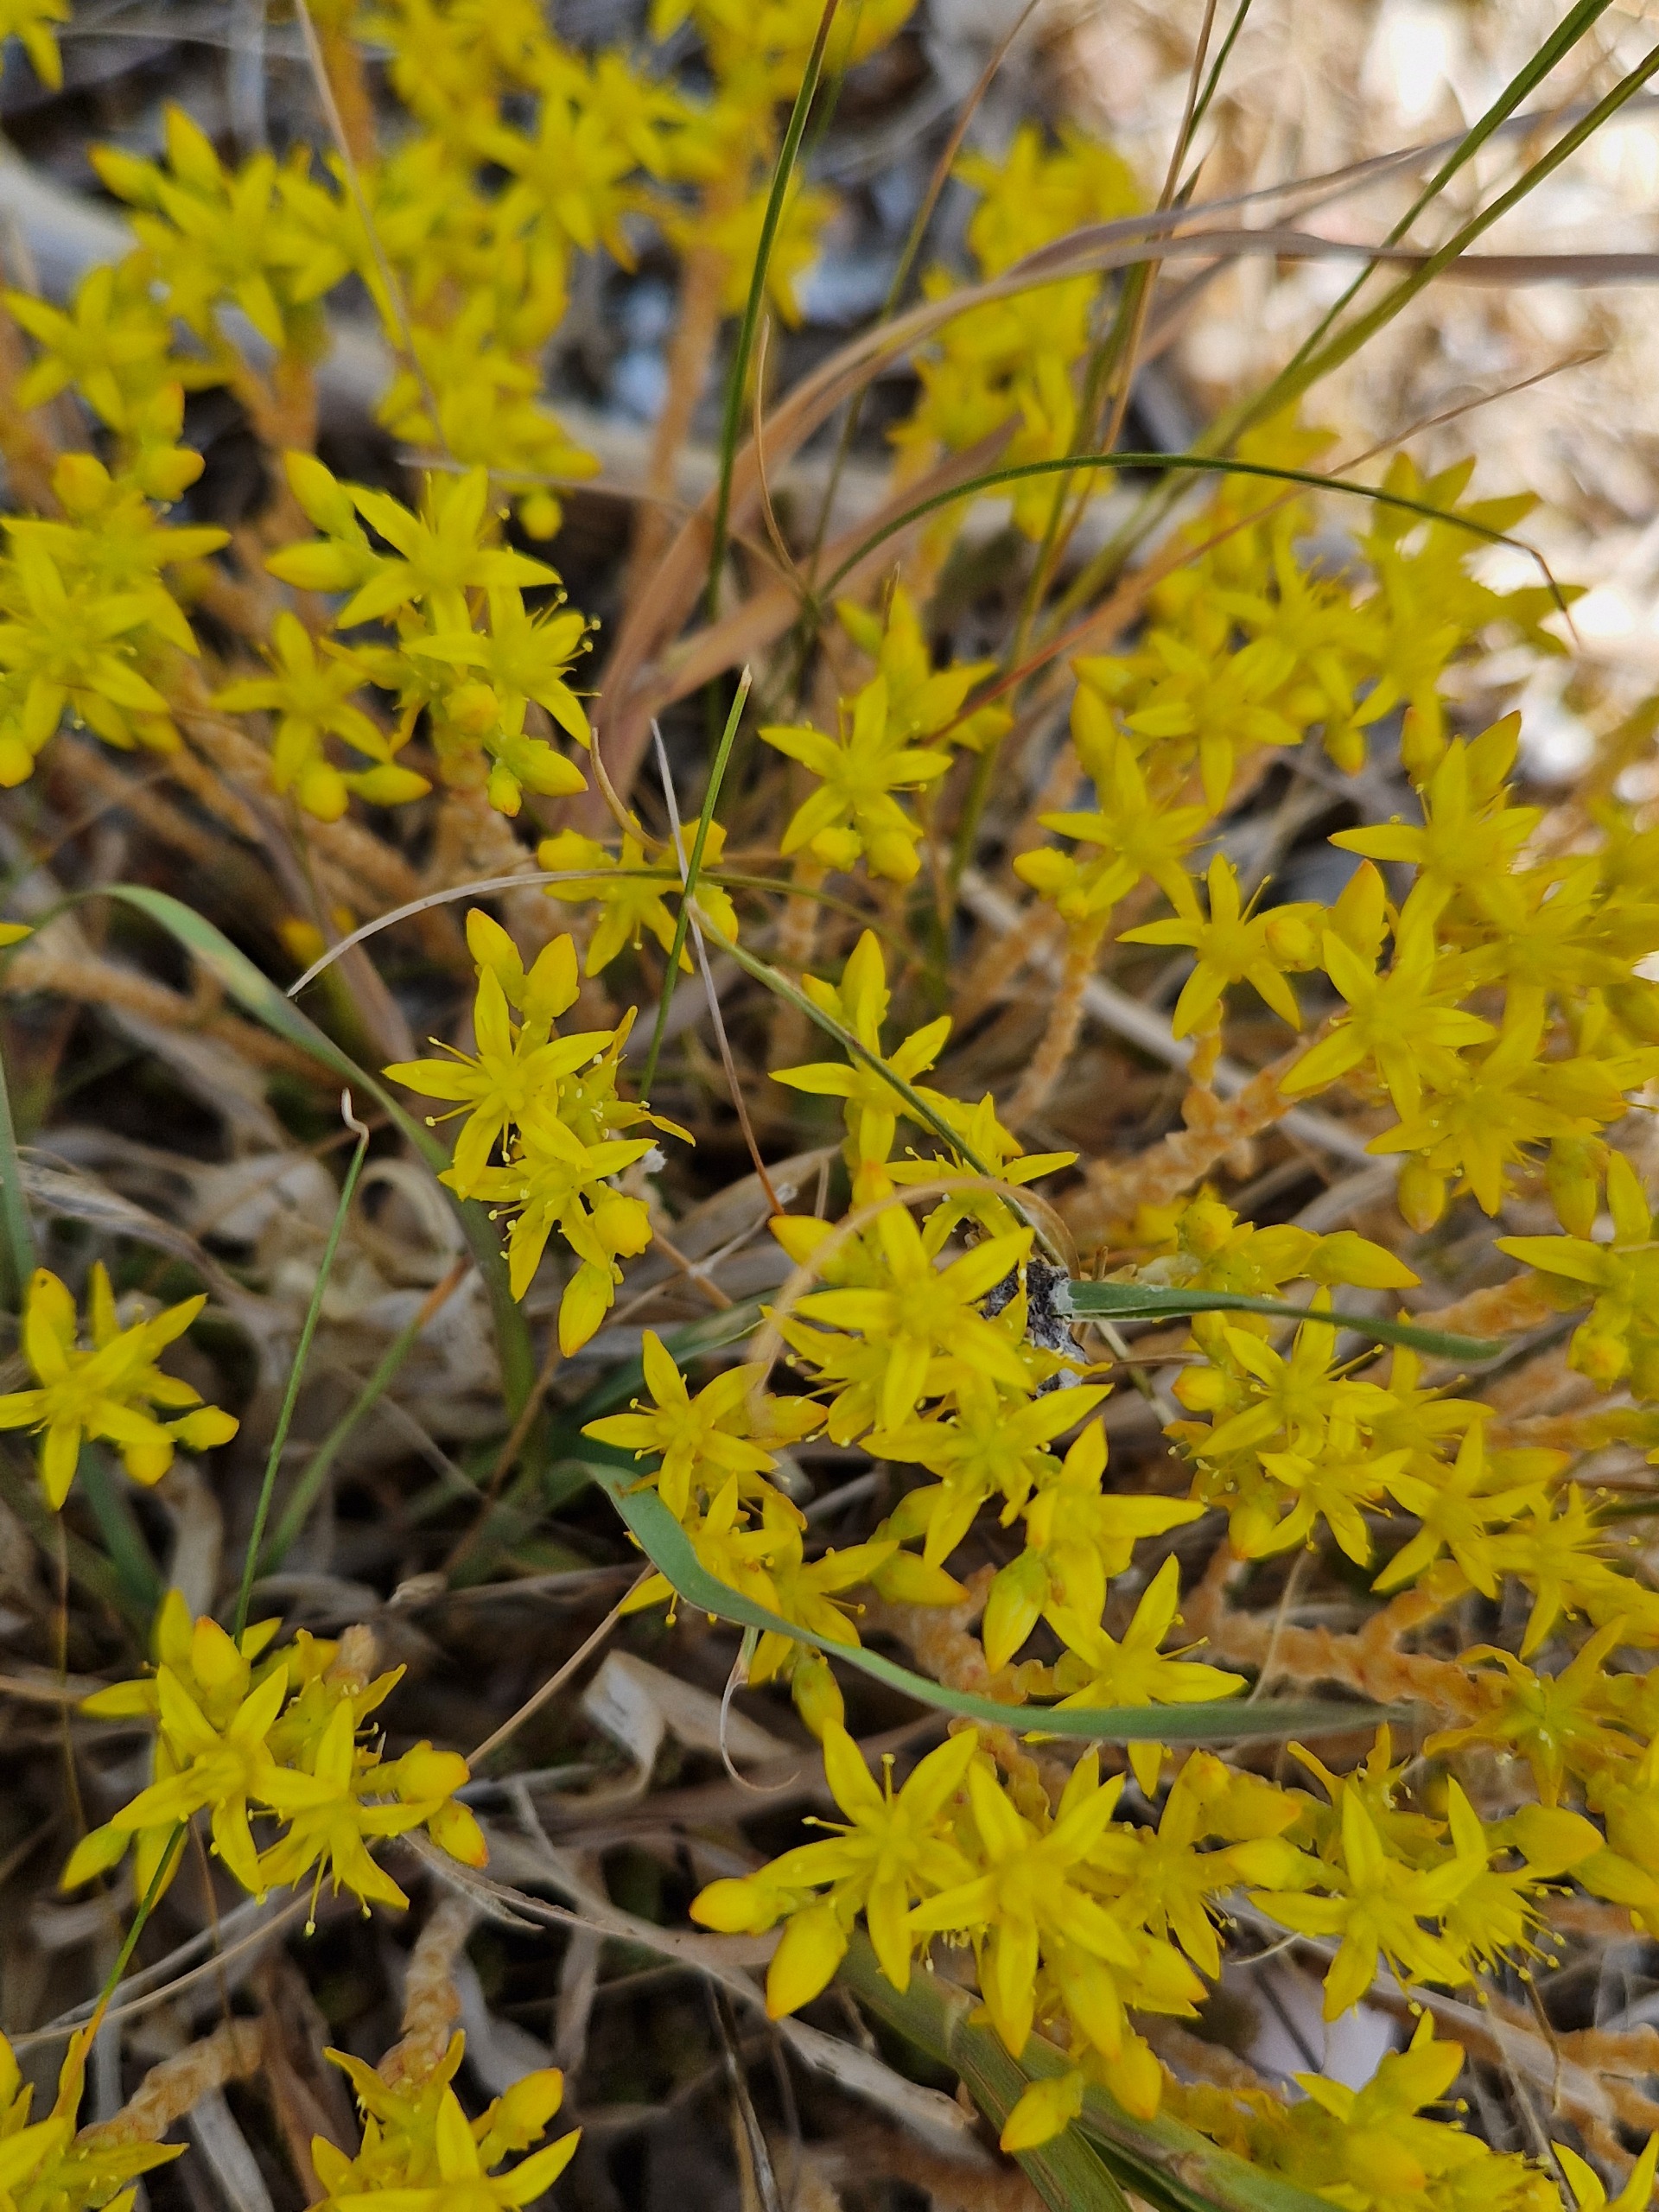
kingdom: Plantae
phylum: Tracheophyta
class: Magnoliopsida
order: Saxifragales
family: Crassulaceae
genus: Sedum
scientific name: Sedum acre
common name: Bidende stenurt
